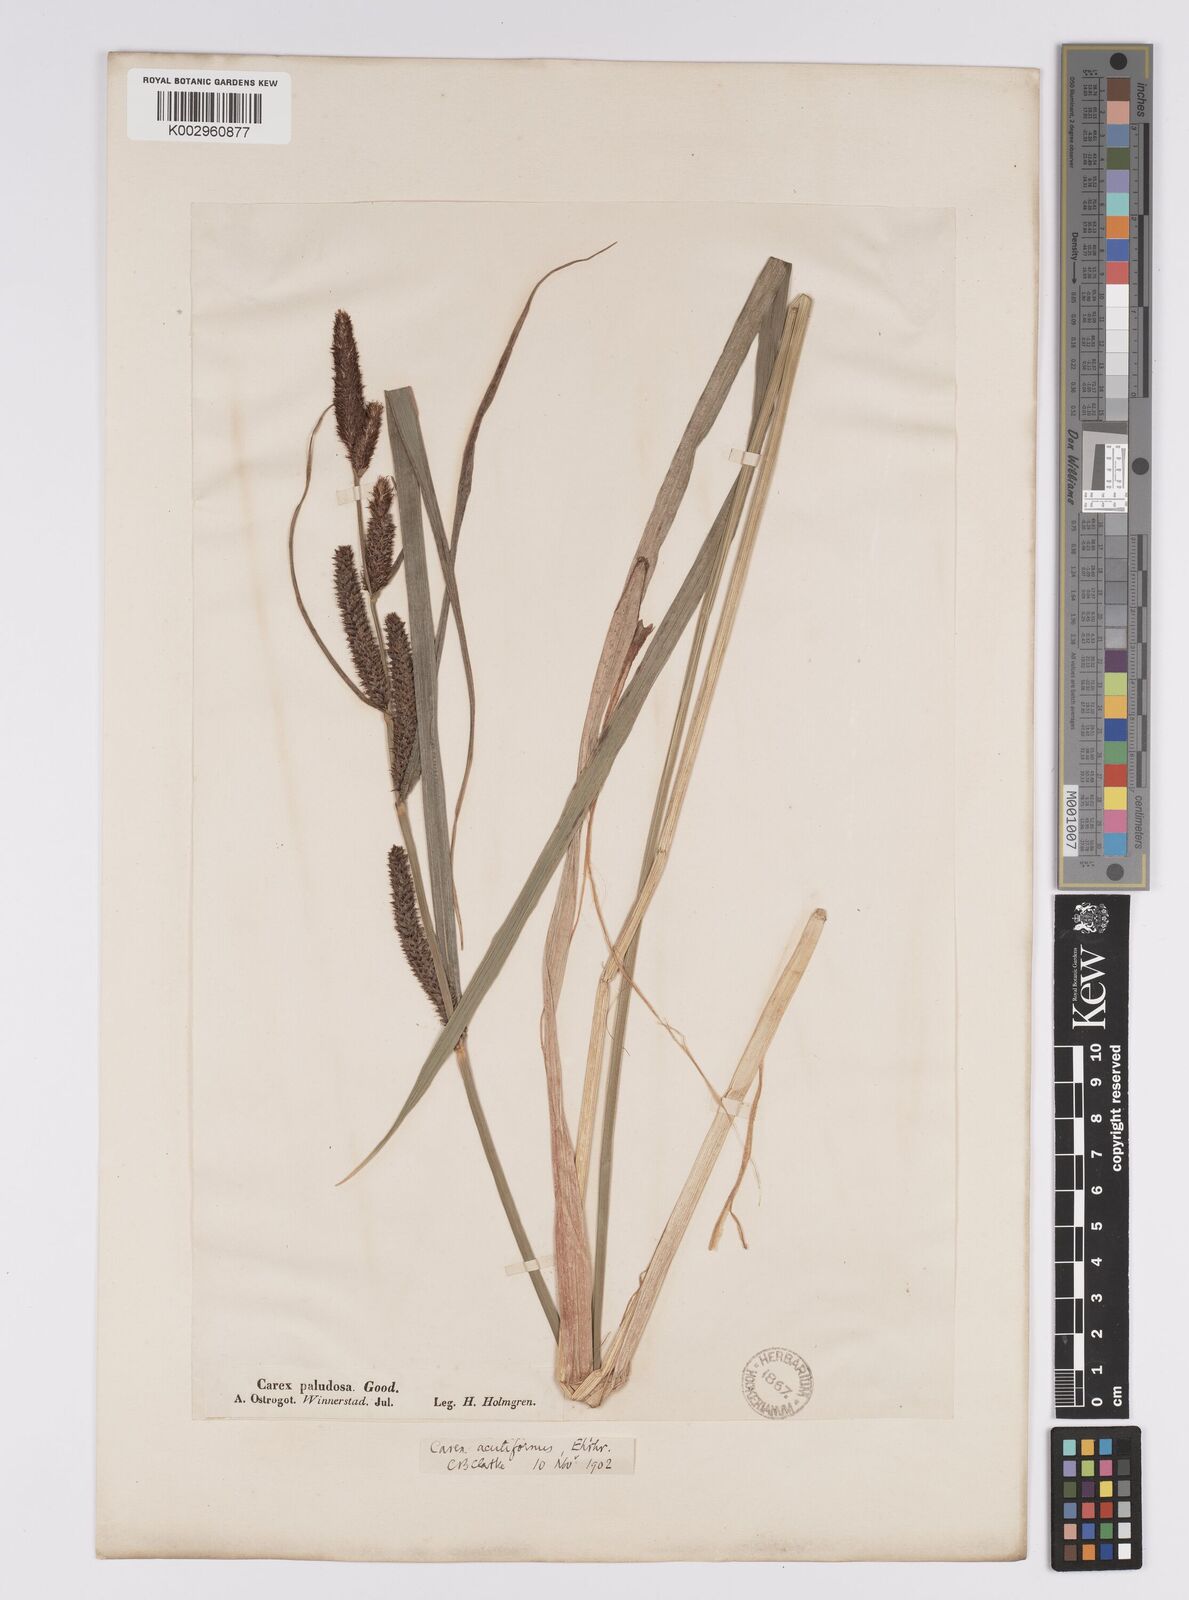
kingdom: Plantae
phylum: Tracheophyta
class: Liliopsida
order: Poales
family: Cyperaceae
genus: Carex
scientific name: Carex acutiformis
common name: Lesser pond-sedge
